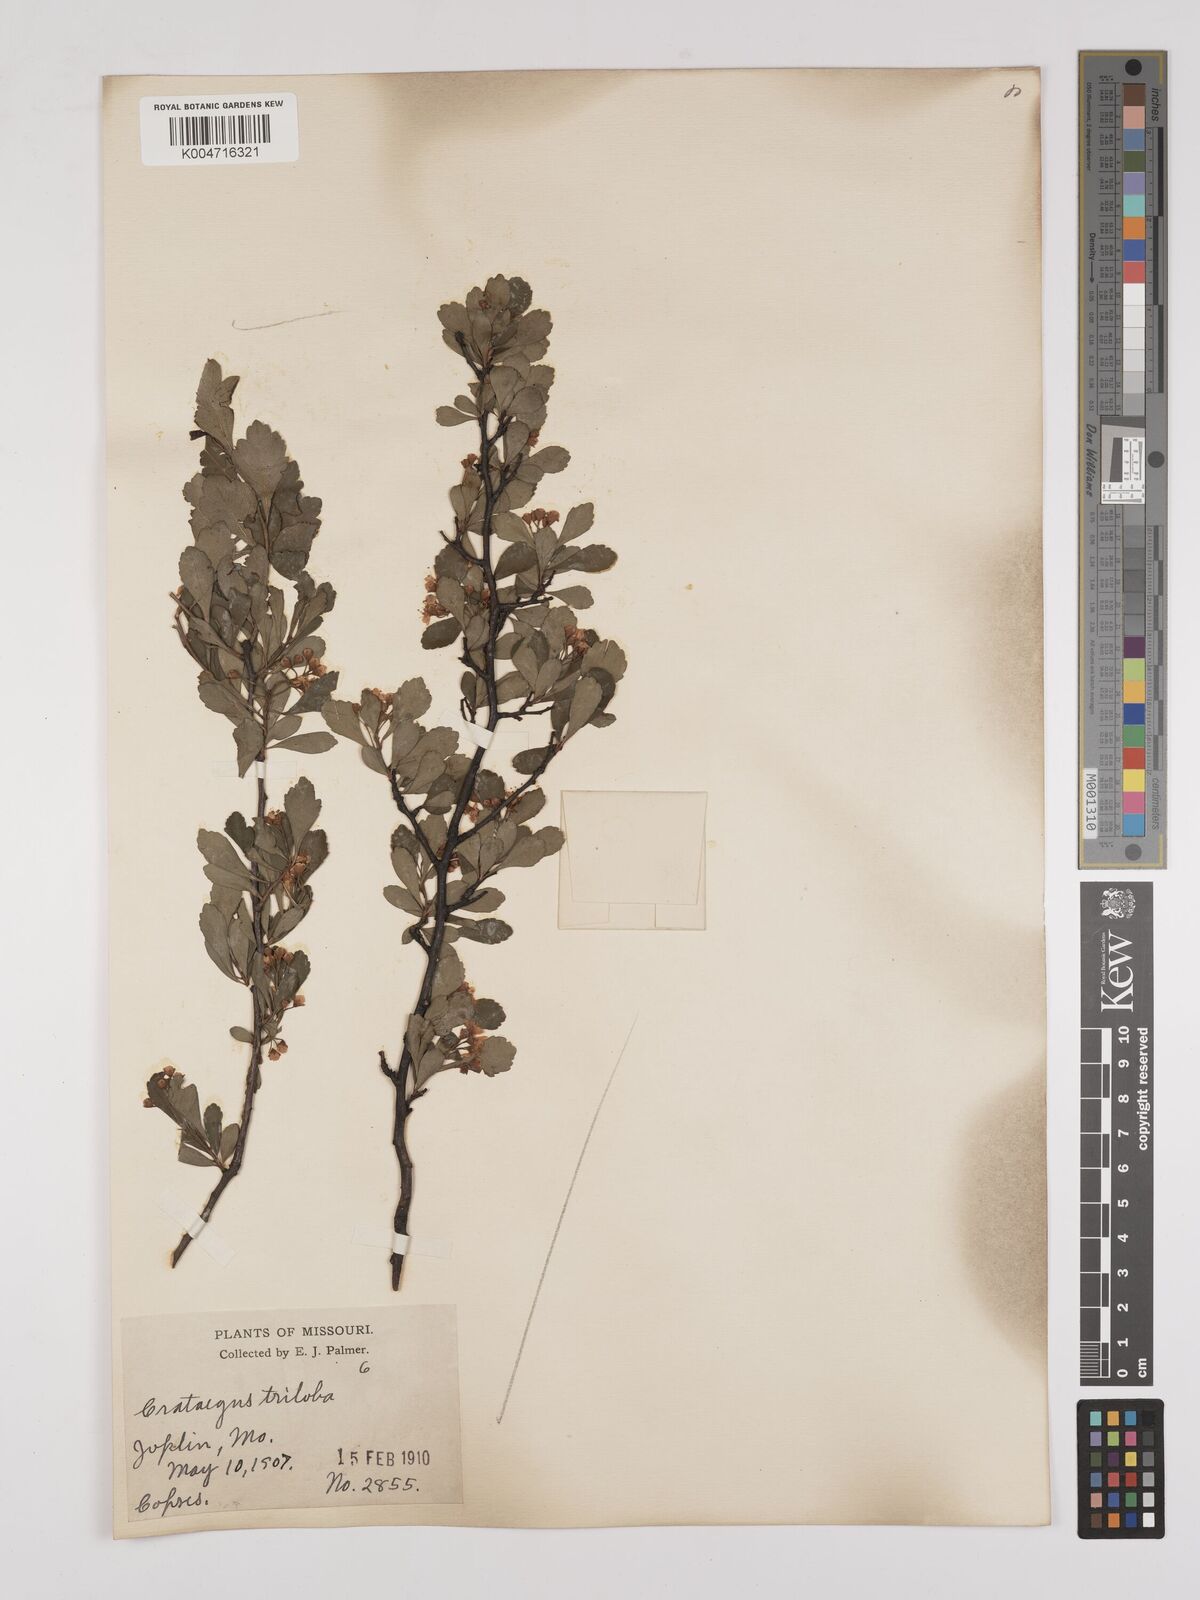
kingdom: Plantae
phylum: Tracheophyta
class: Magnoliopsida
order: Rosales
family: Rosaceae
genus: Crataegus
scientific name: Crataegus
